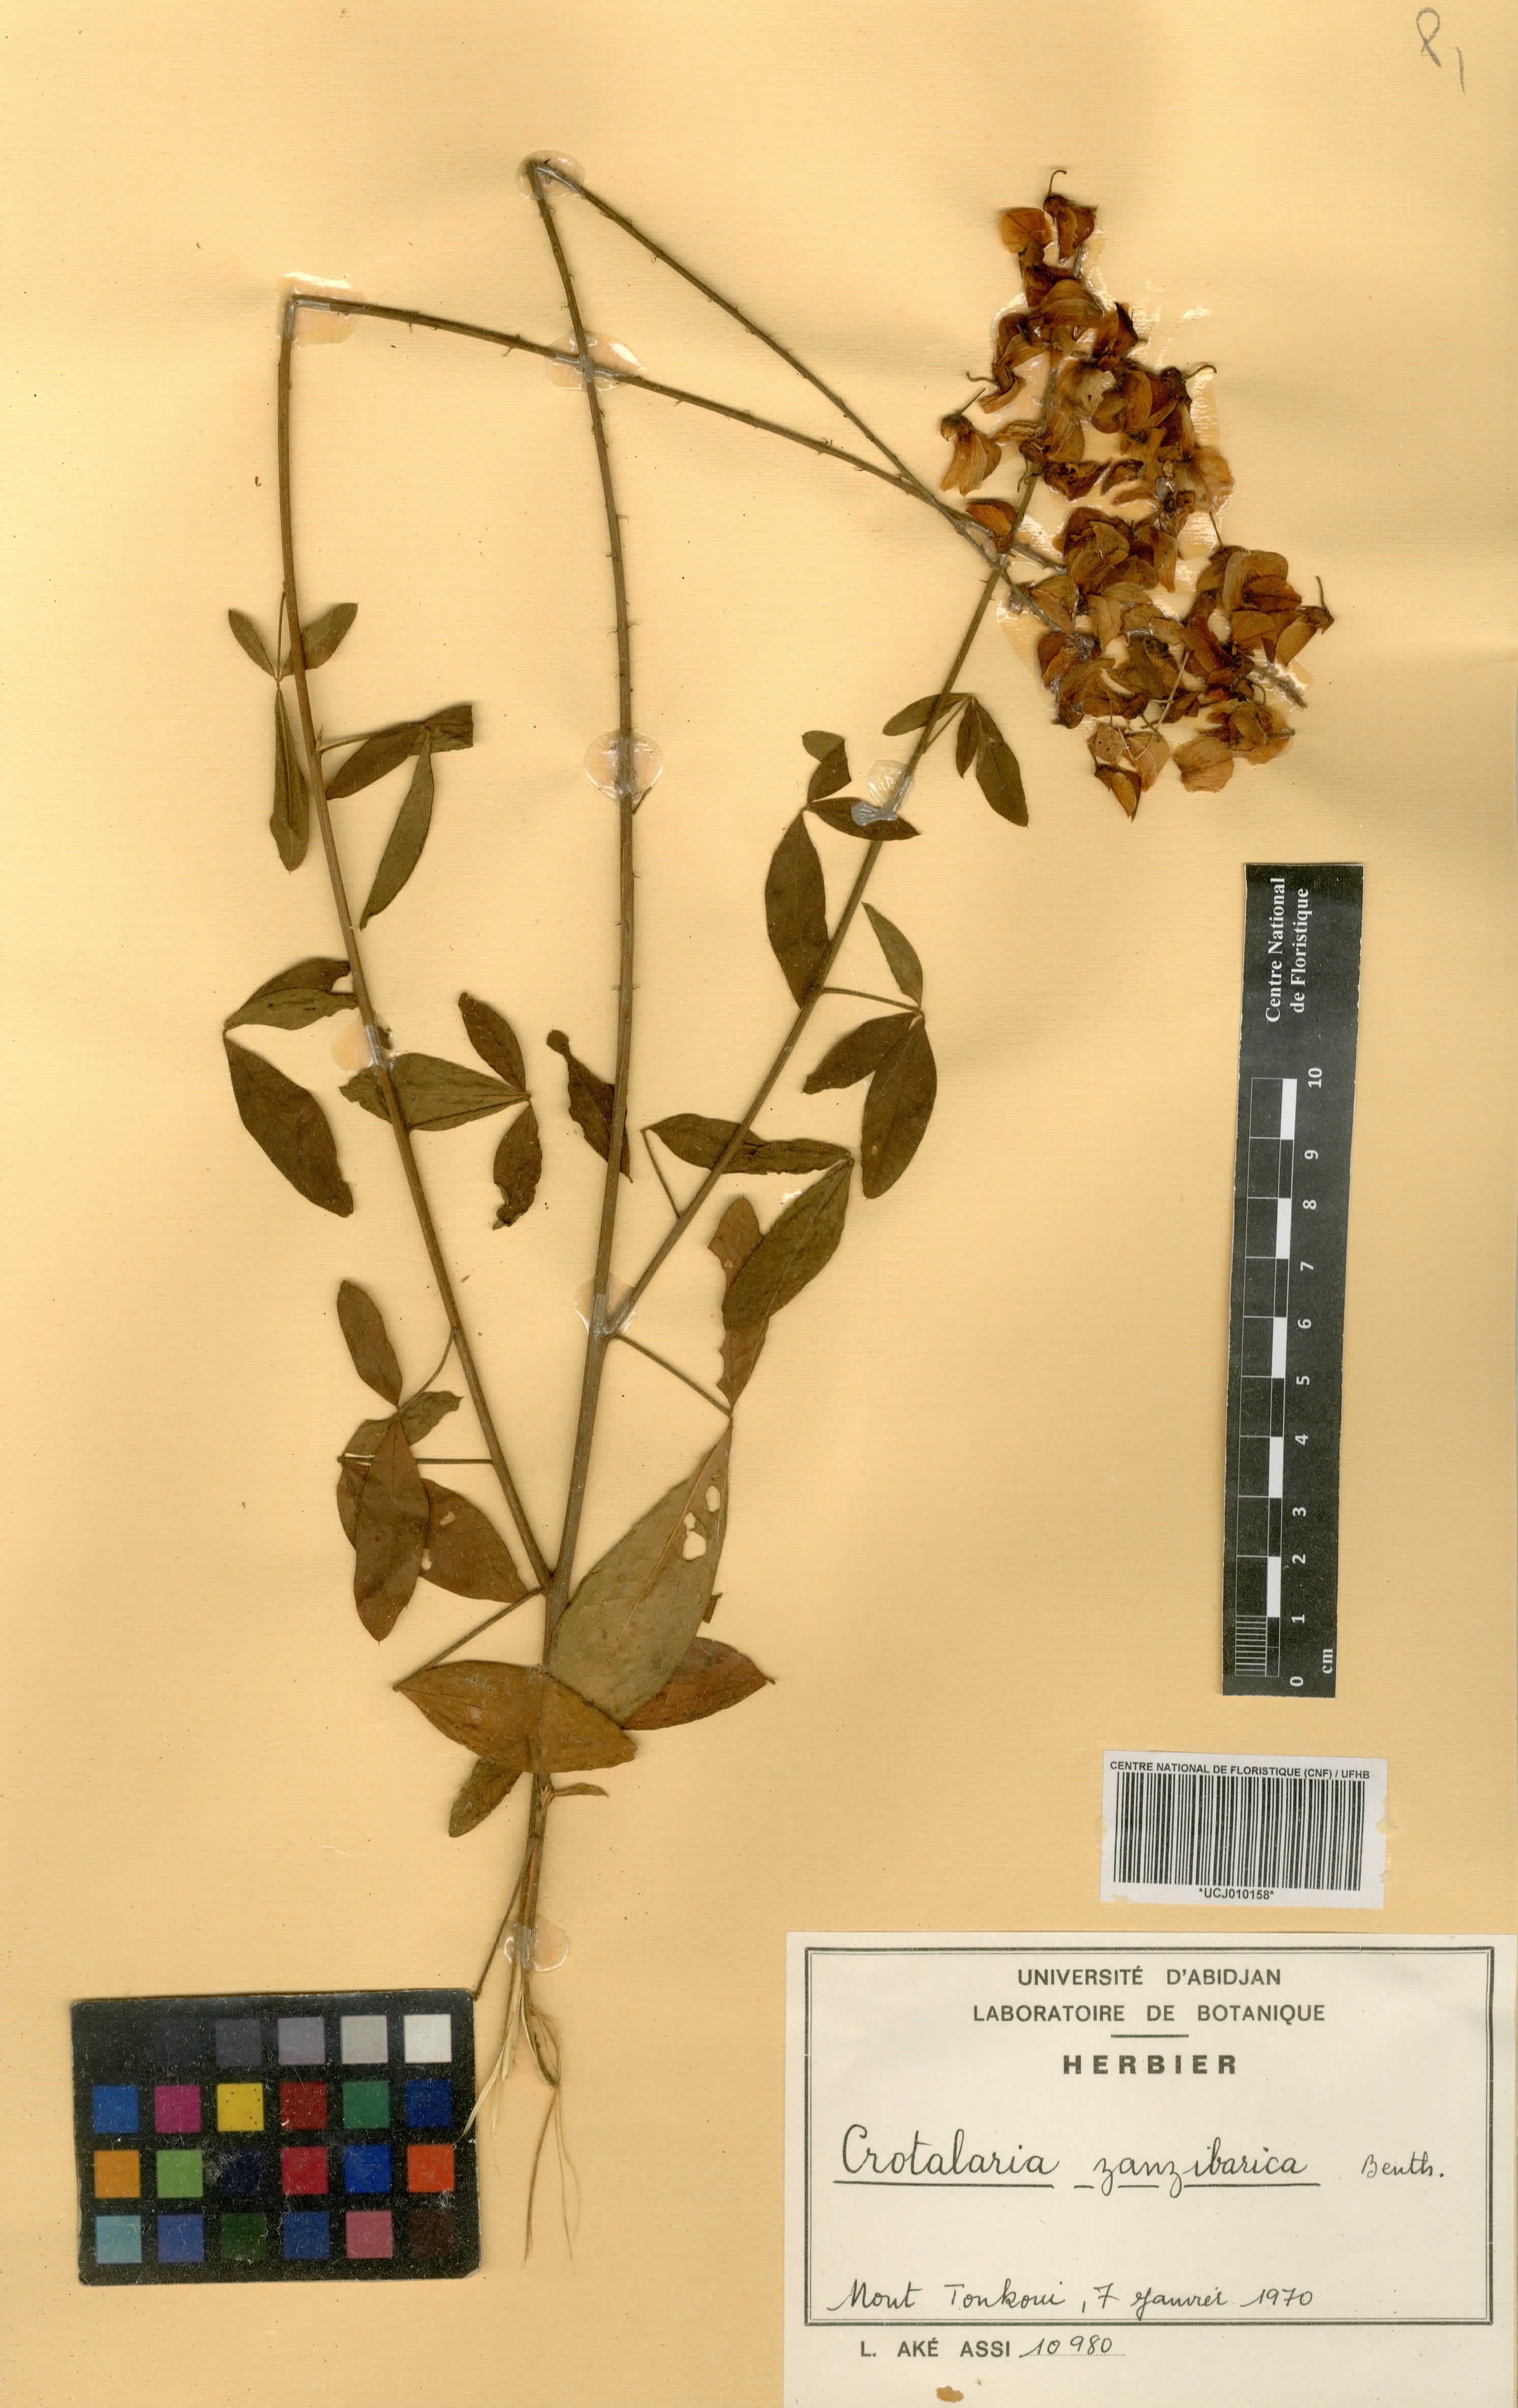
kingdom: Plantae
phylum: Tracheophyta
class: Magnoliopsida
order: Fabales
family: Fabaceae
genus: Crotalaria
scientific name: Crotalaria trichotoma
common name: West indian rattlebox
